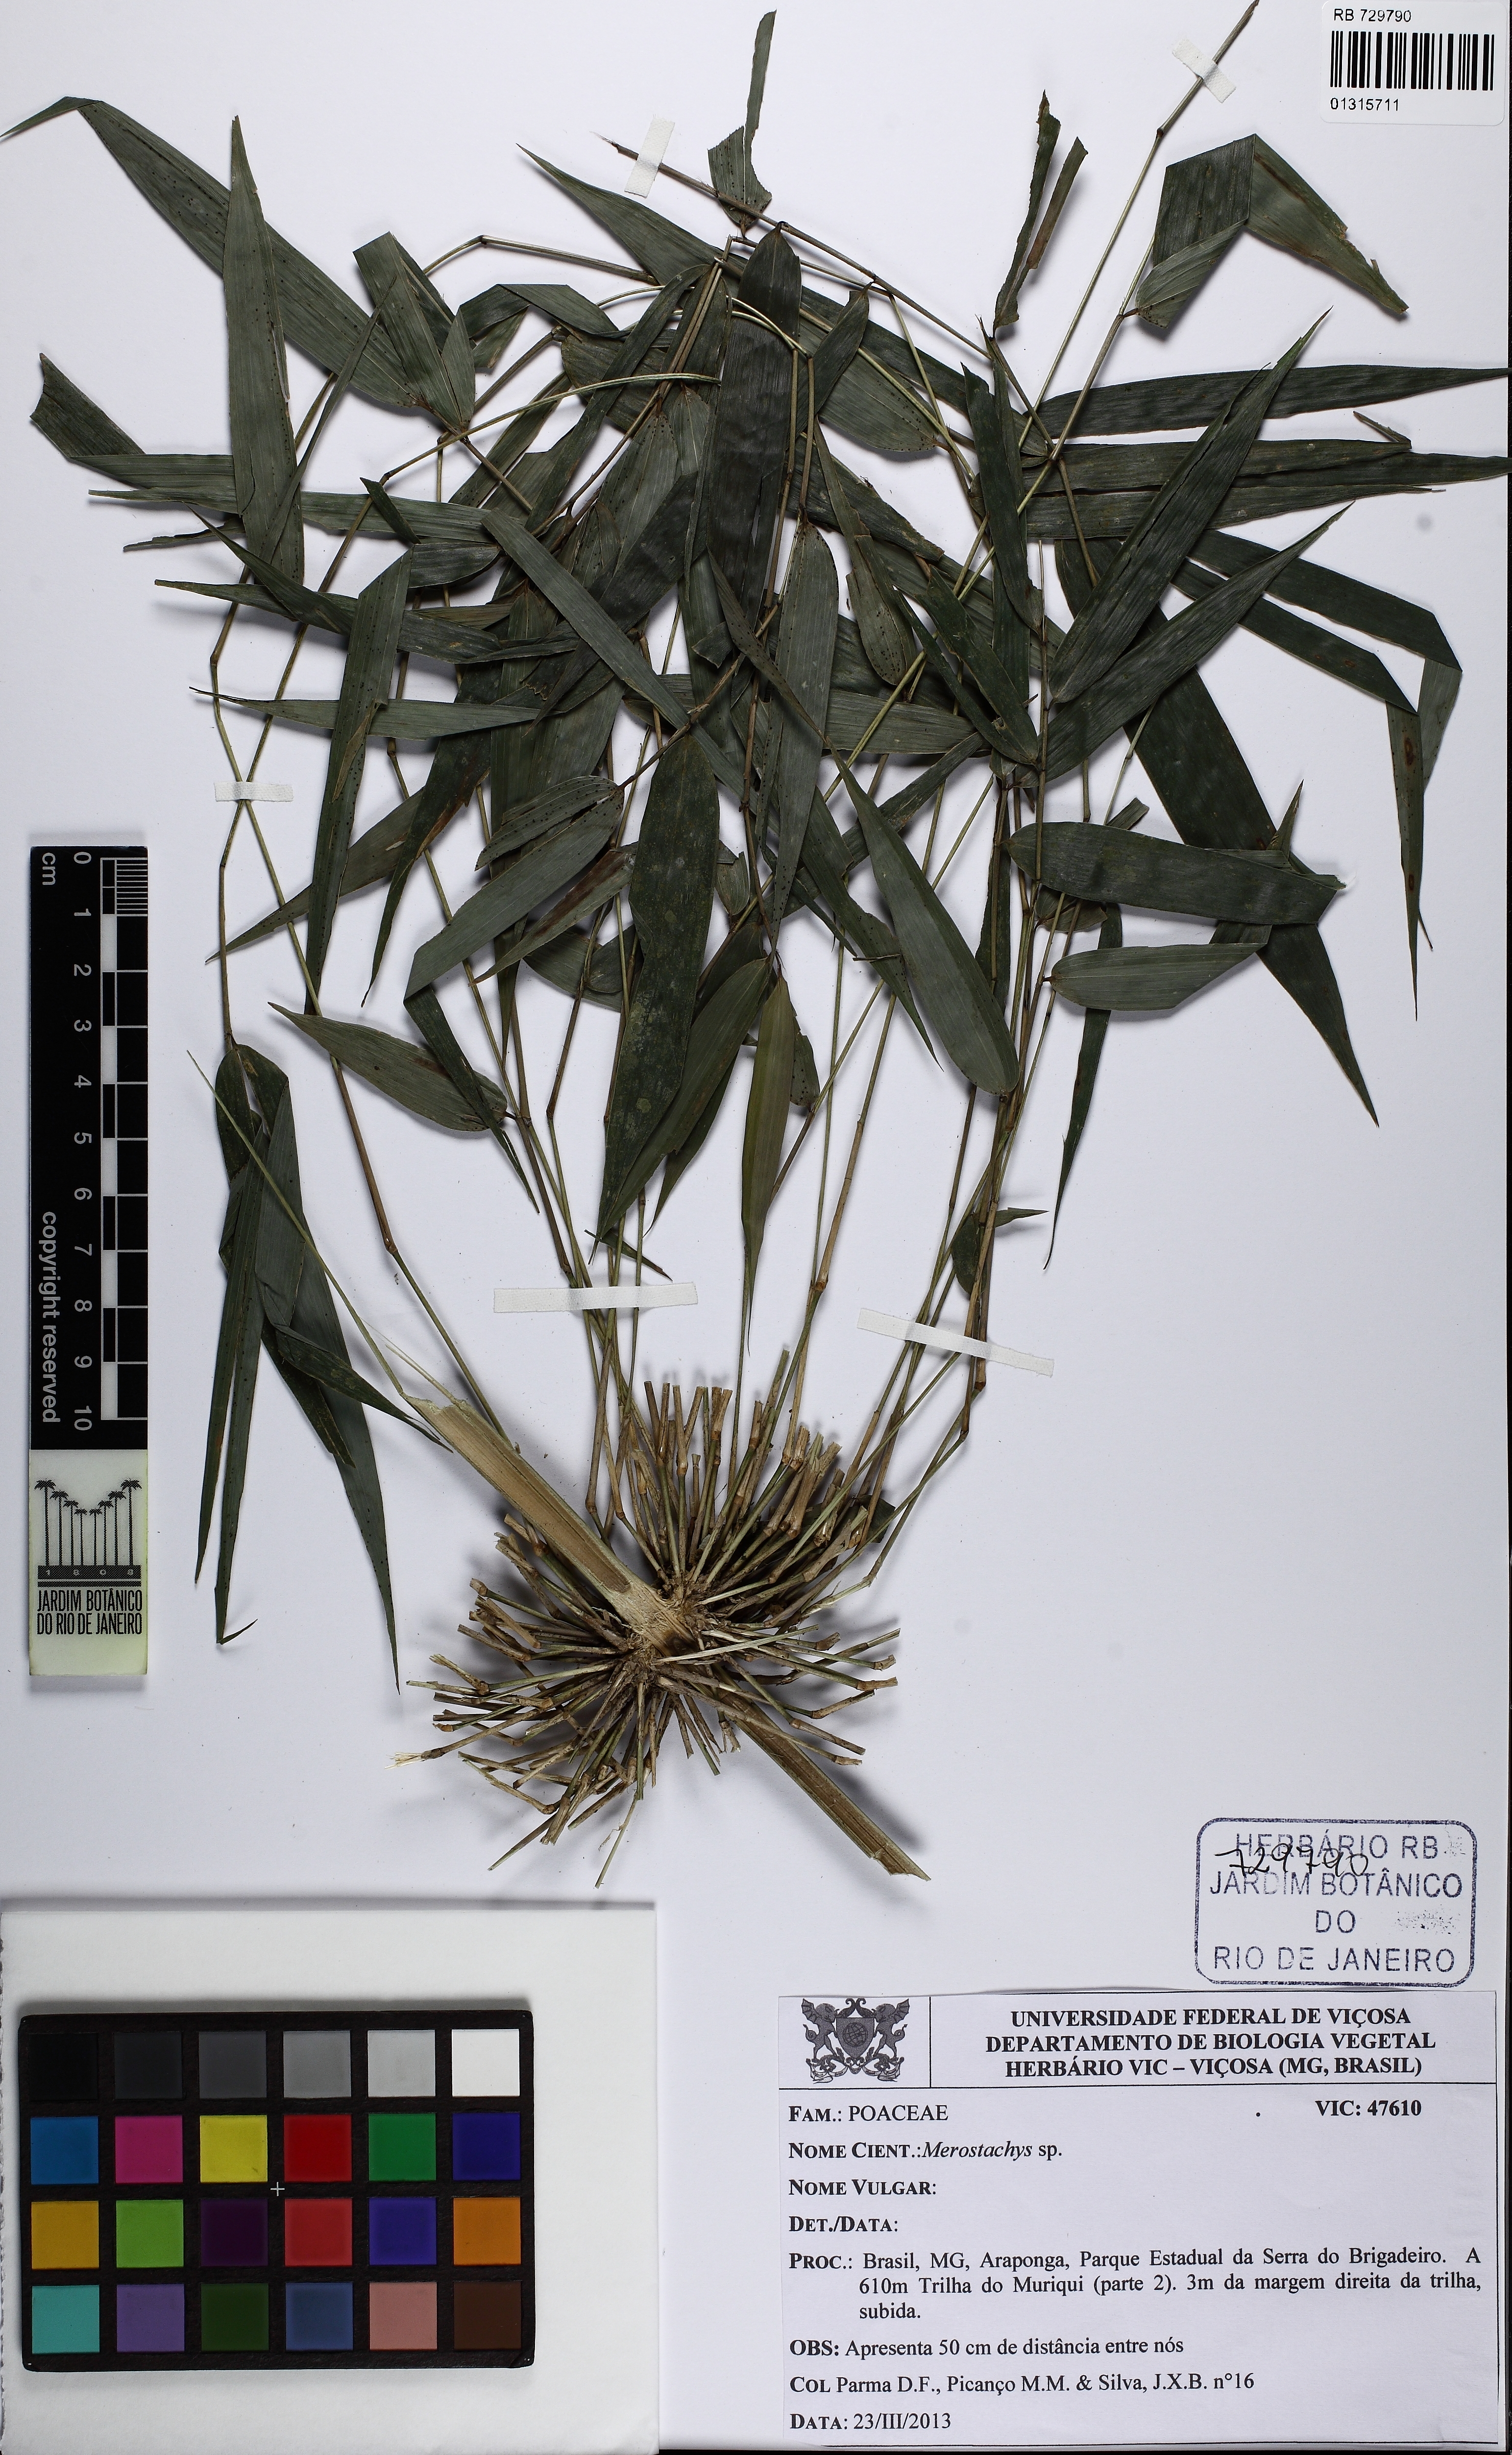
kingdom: Plantae
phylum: Tracheophyta
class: Liliopsida
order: Poales
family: Poaceae
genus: Merostachys
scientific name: Merostachys ramosa
